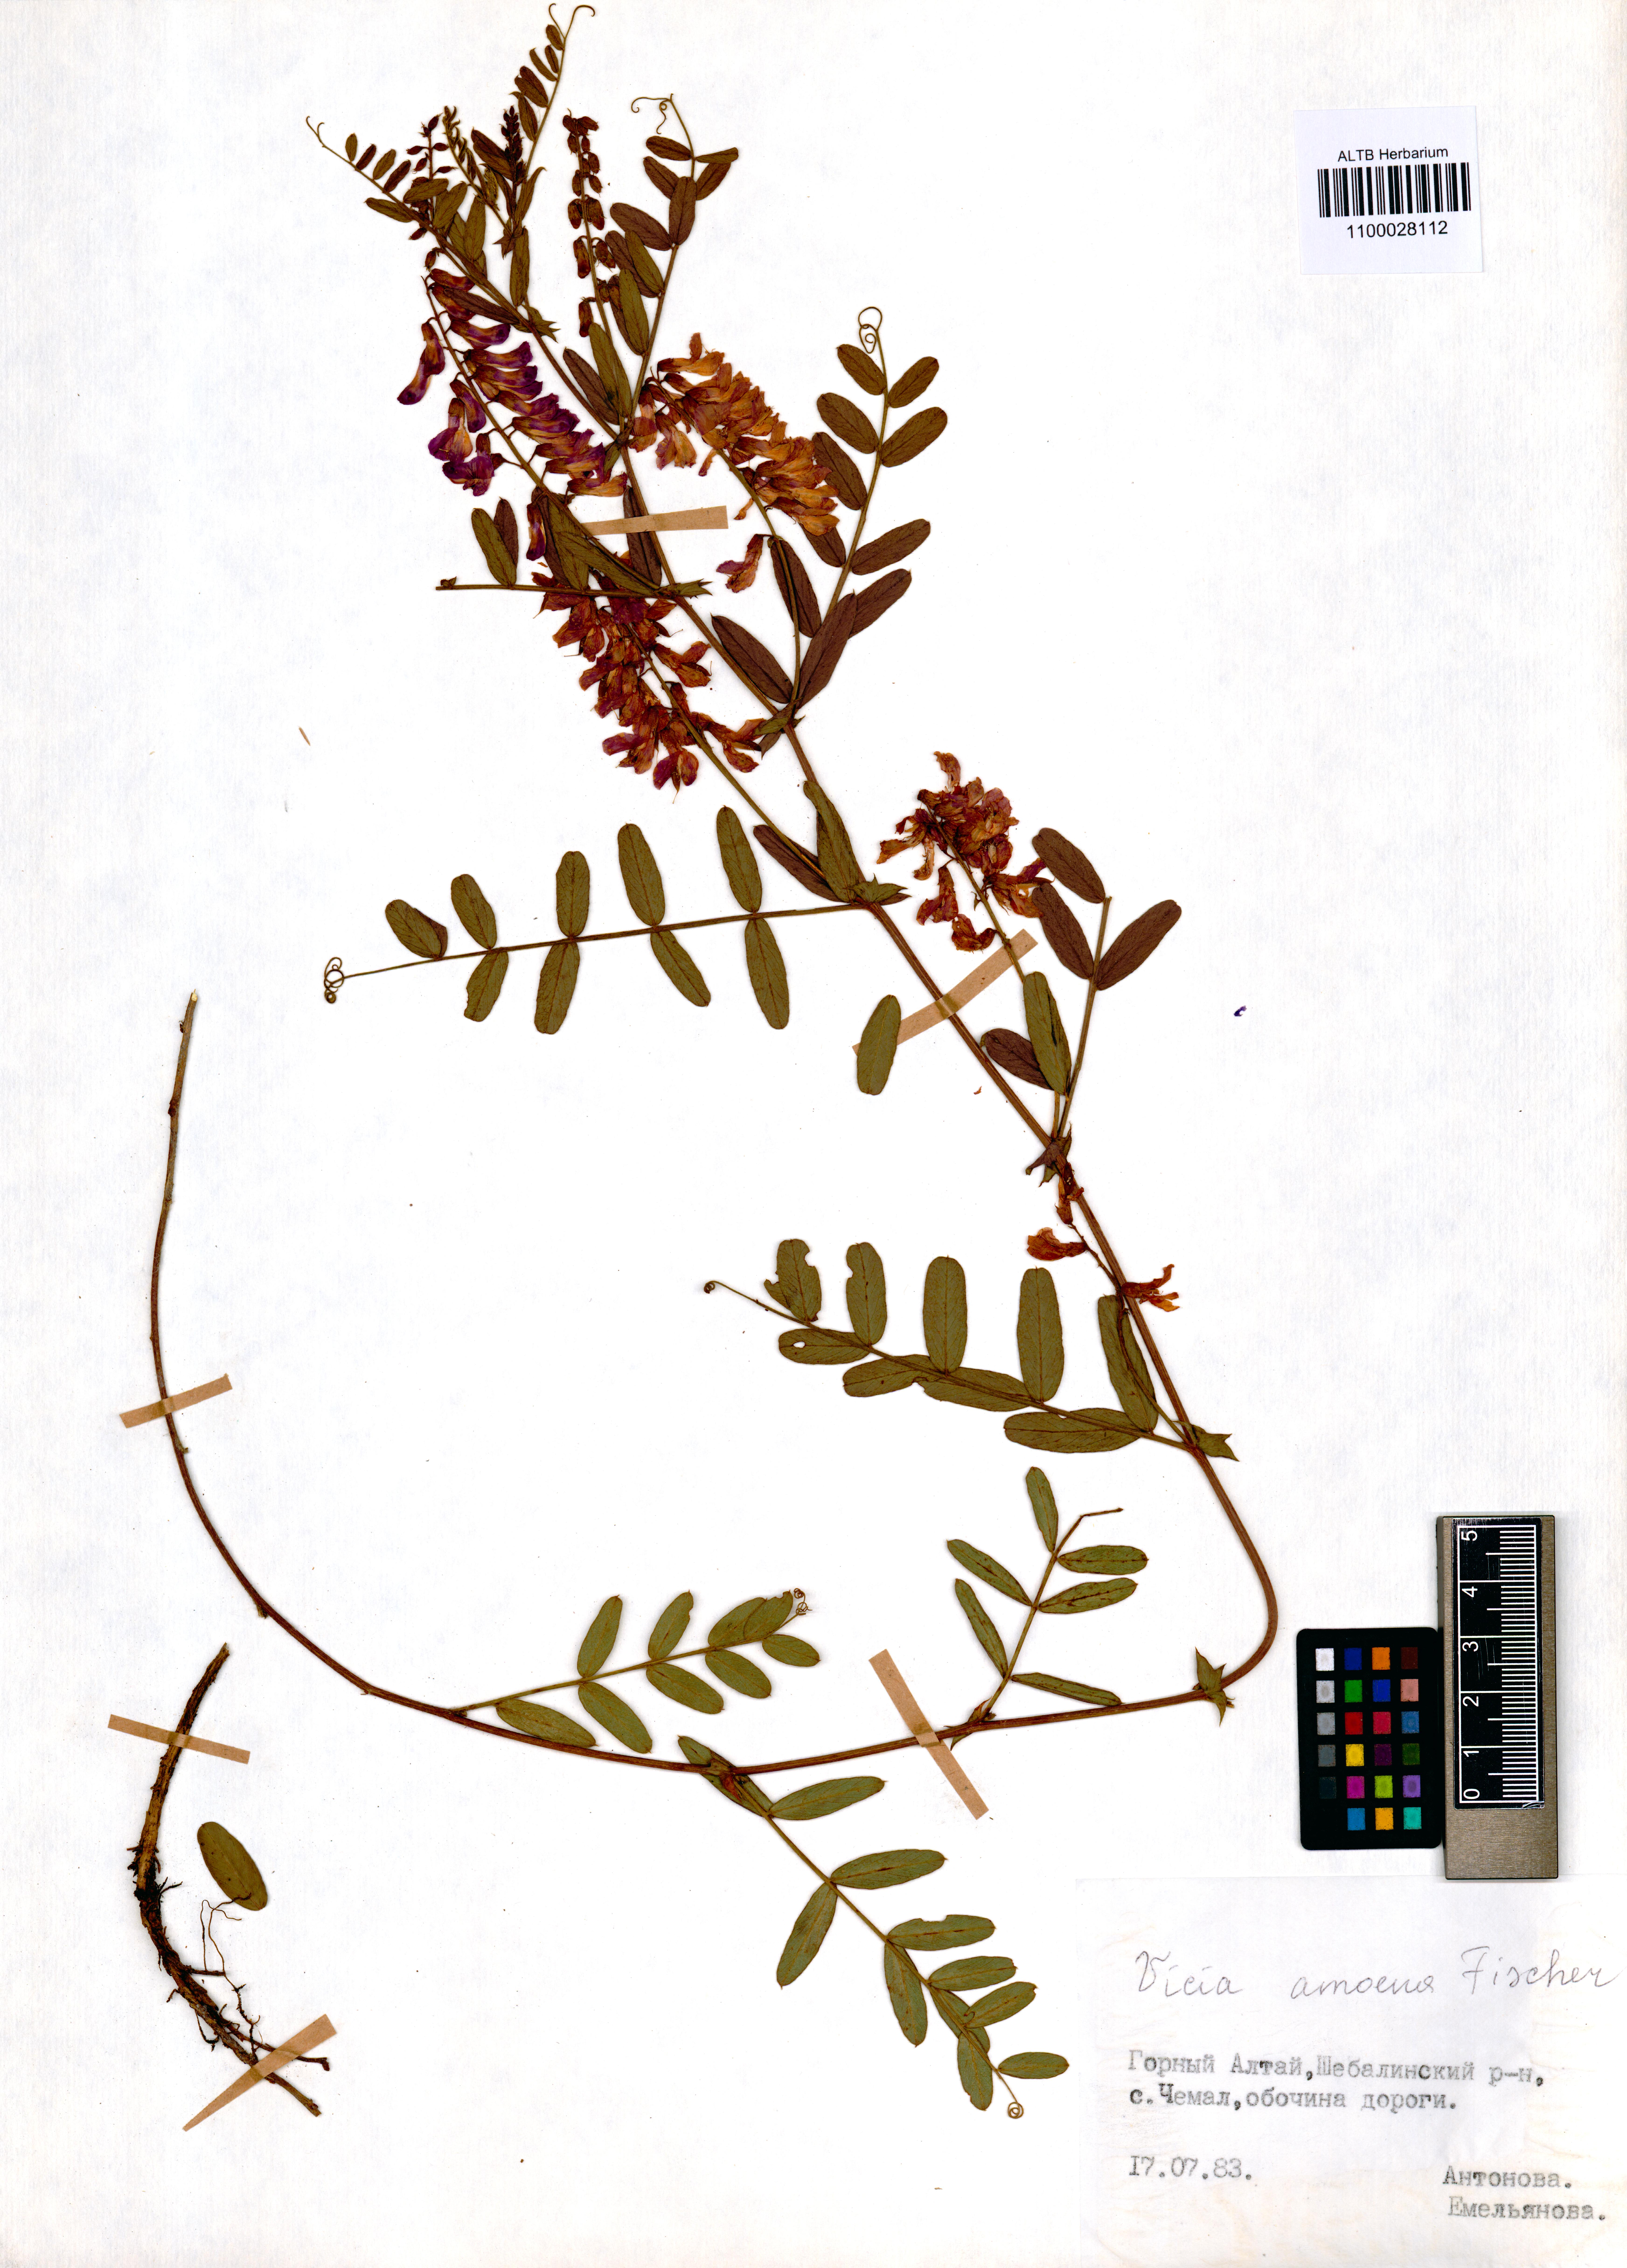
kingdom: Plantae
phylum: Tracheophyta
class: Magnoliopsida
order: Fabales
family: Fabaceae
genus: Vicia
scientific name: Vicia amoena
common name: Cheder ebs
